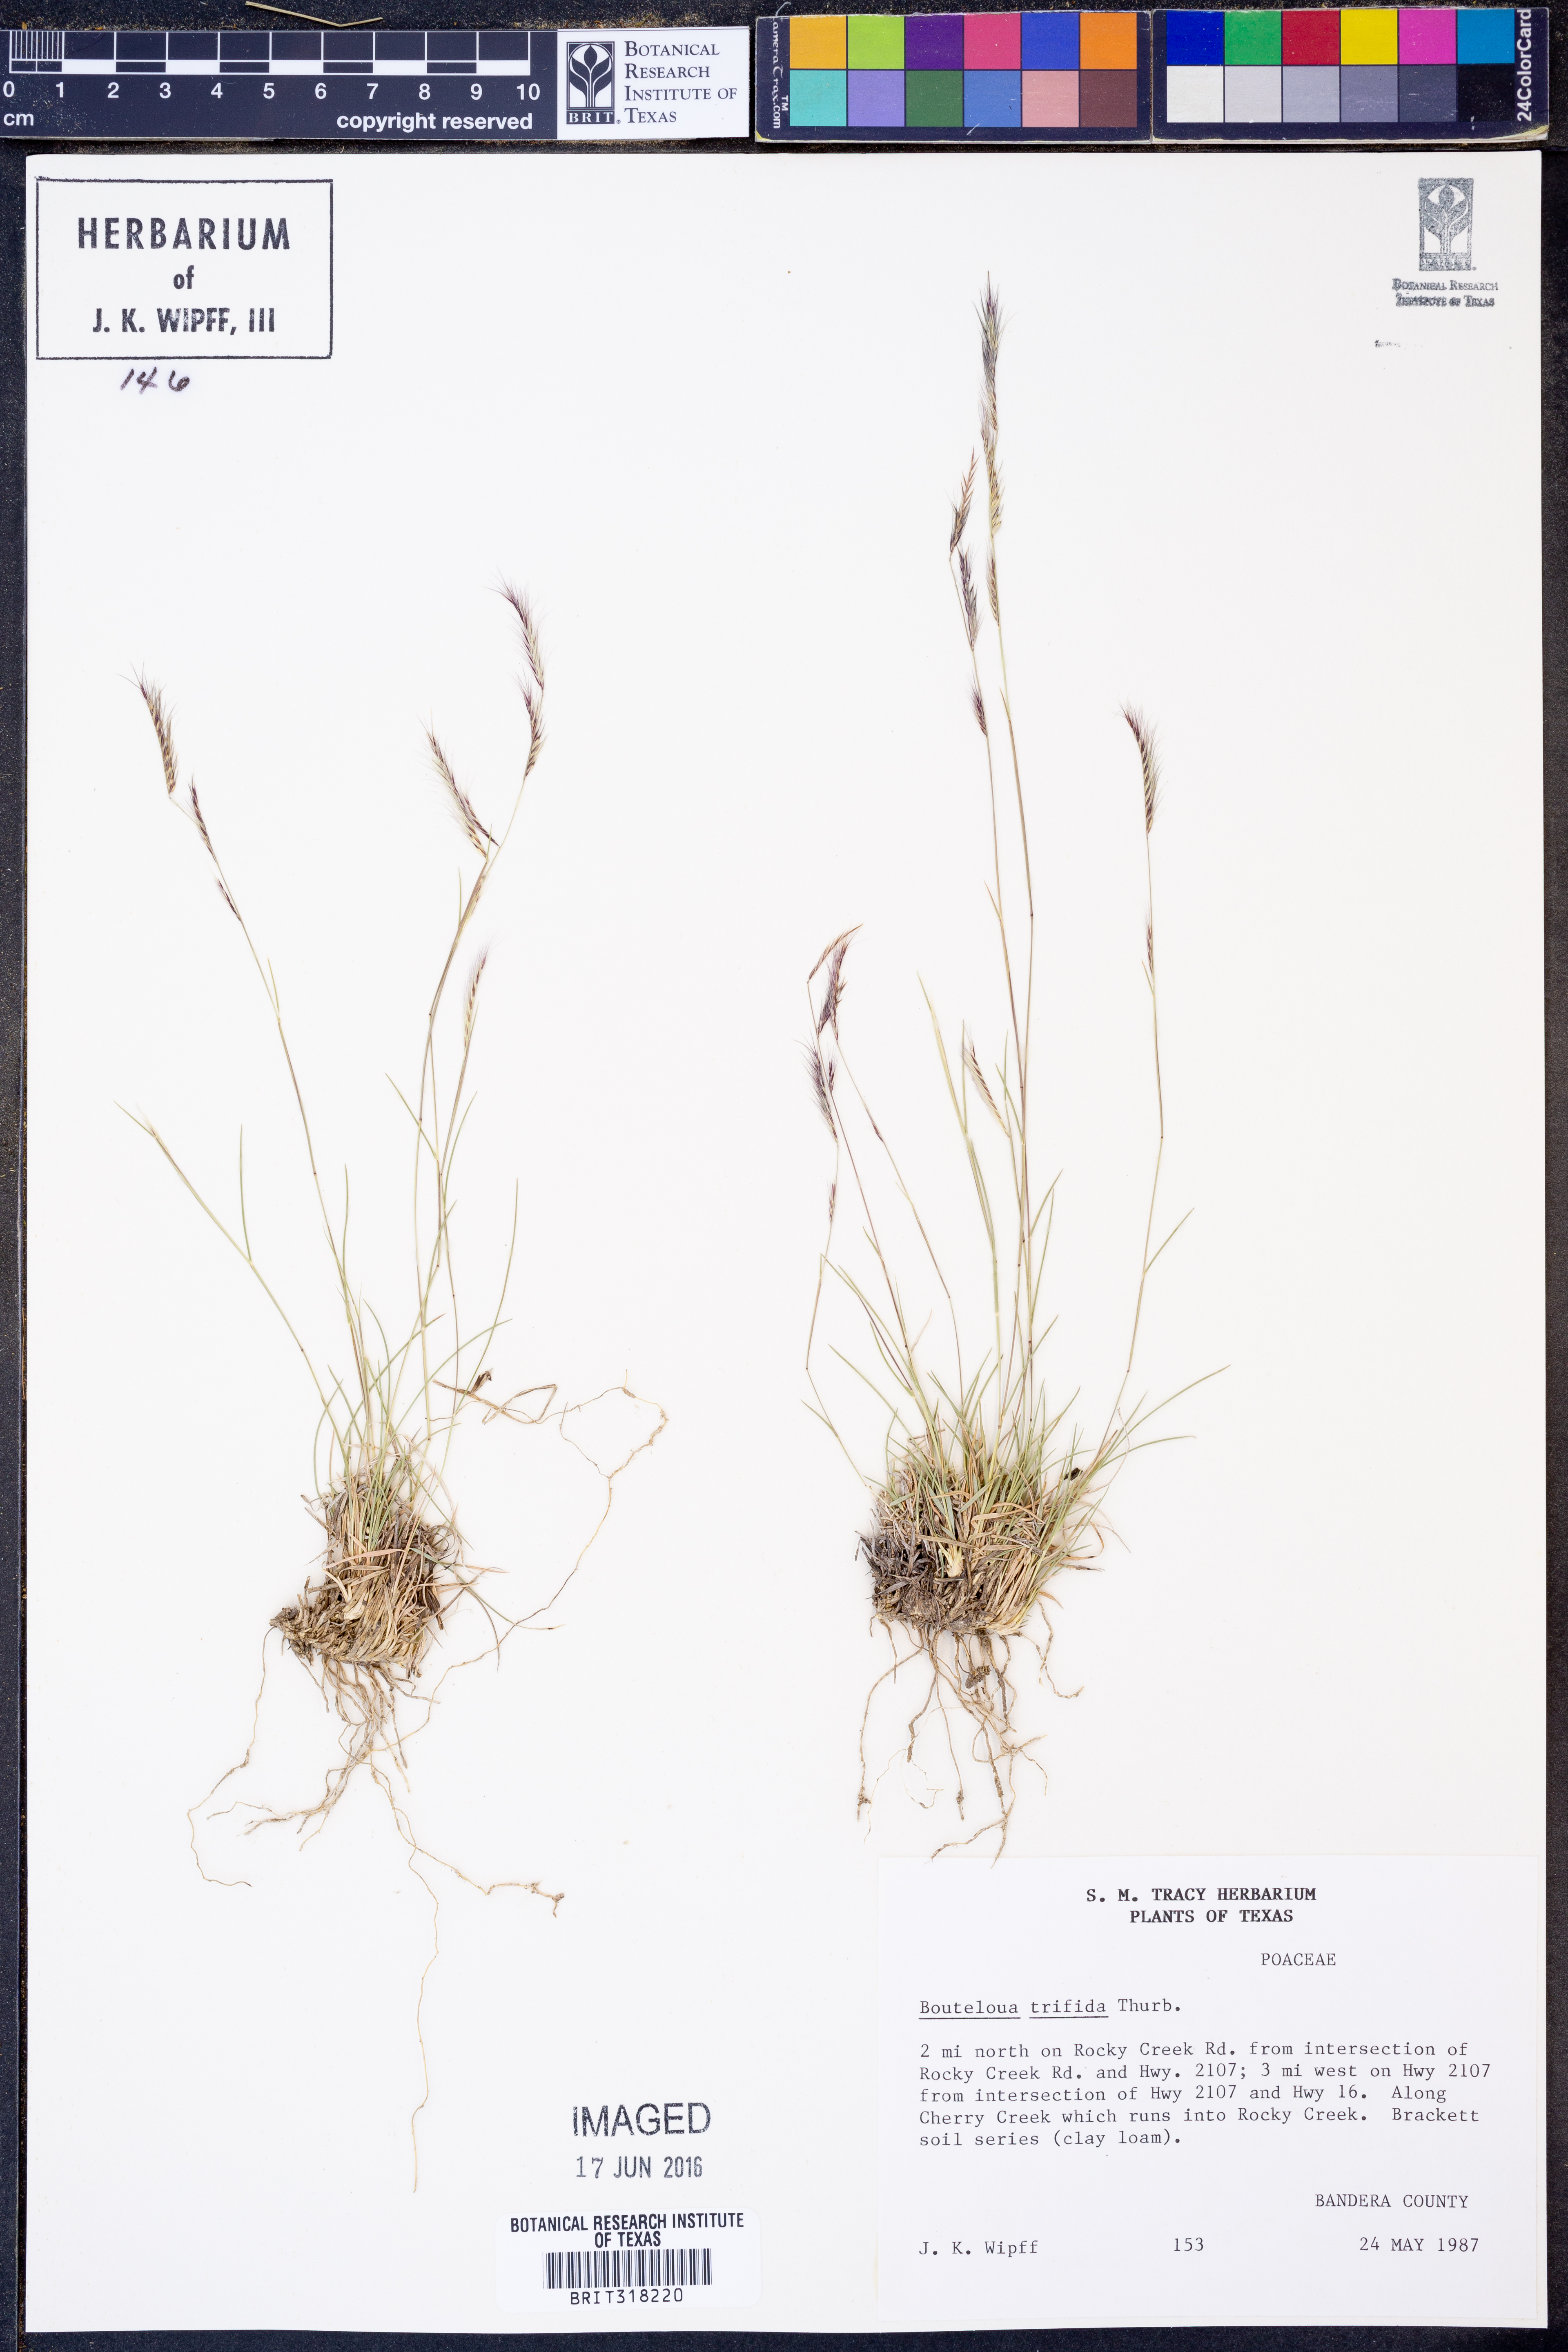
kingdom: Plantae
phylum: Tracheophyta
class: Liliopsida
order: Poales
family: Poaceae
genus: Bouteloua
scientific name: Bouteloua trifida
